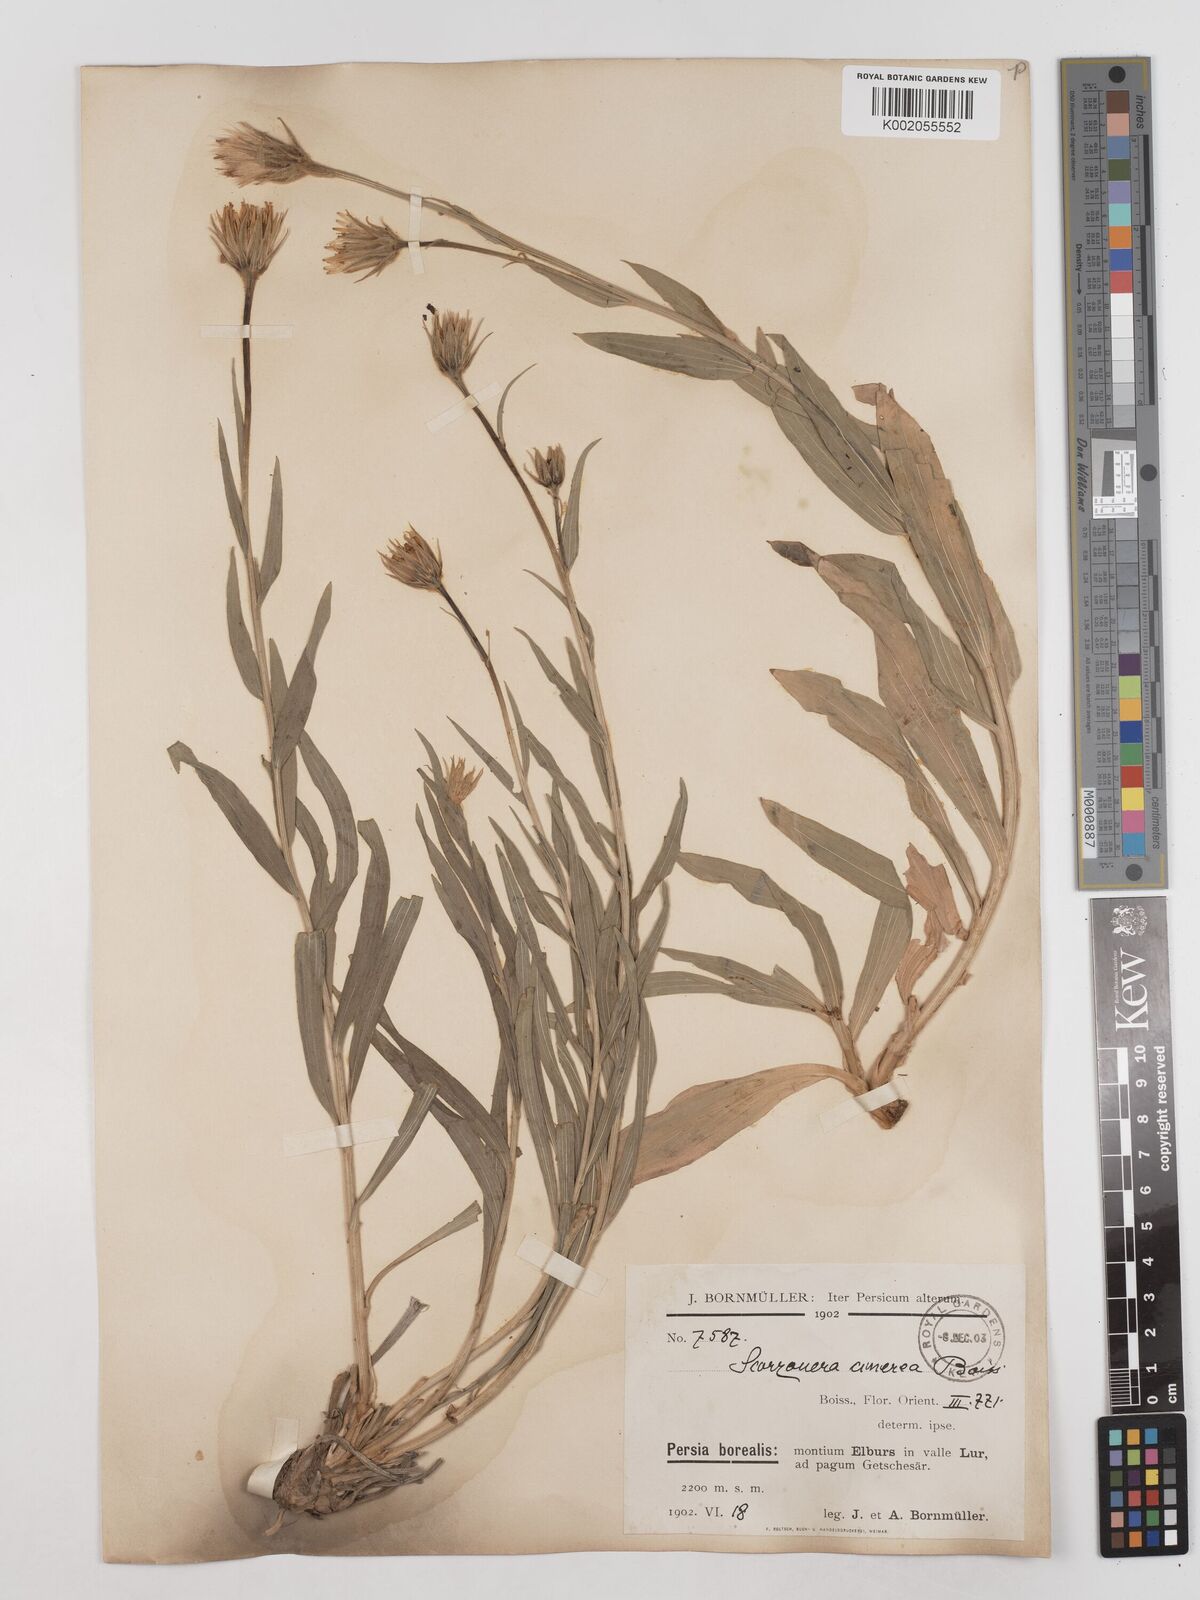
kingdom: Plantae
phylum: Tracheophyta
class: Magnoliopsida
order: Asterales
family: Asteraceae
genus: Cigdemia
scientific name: Cigdemia cinerea
